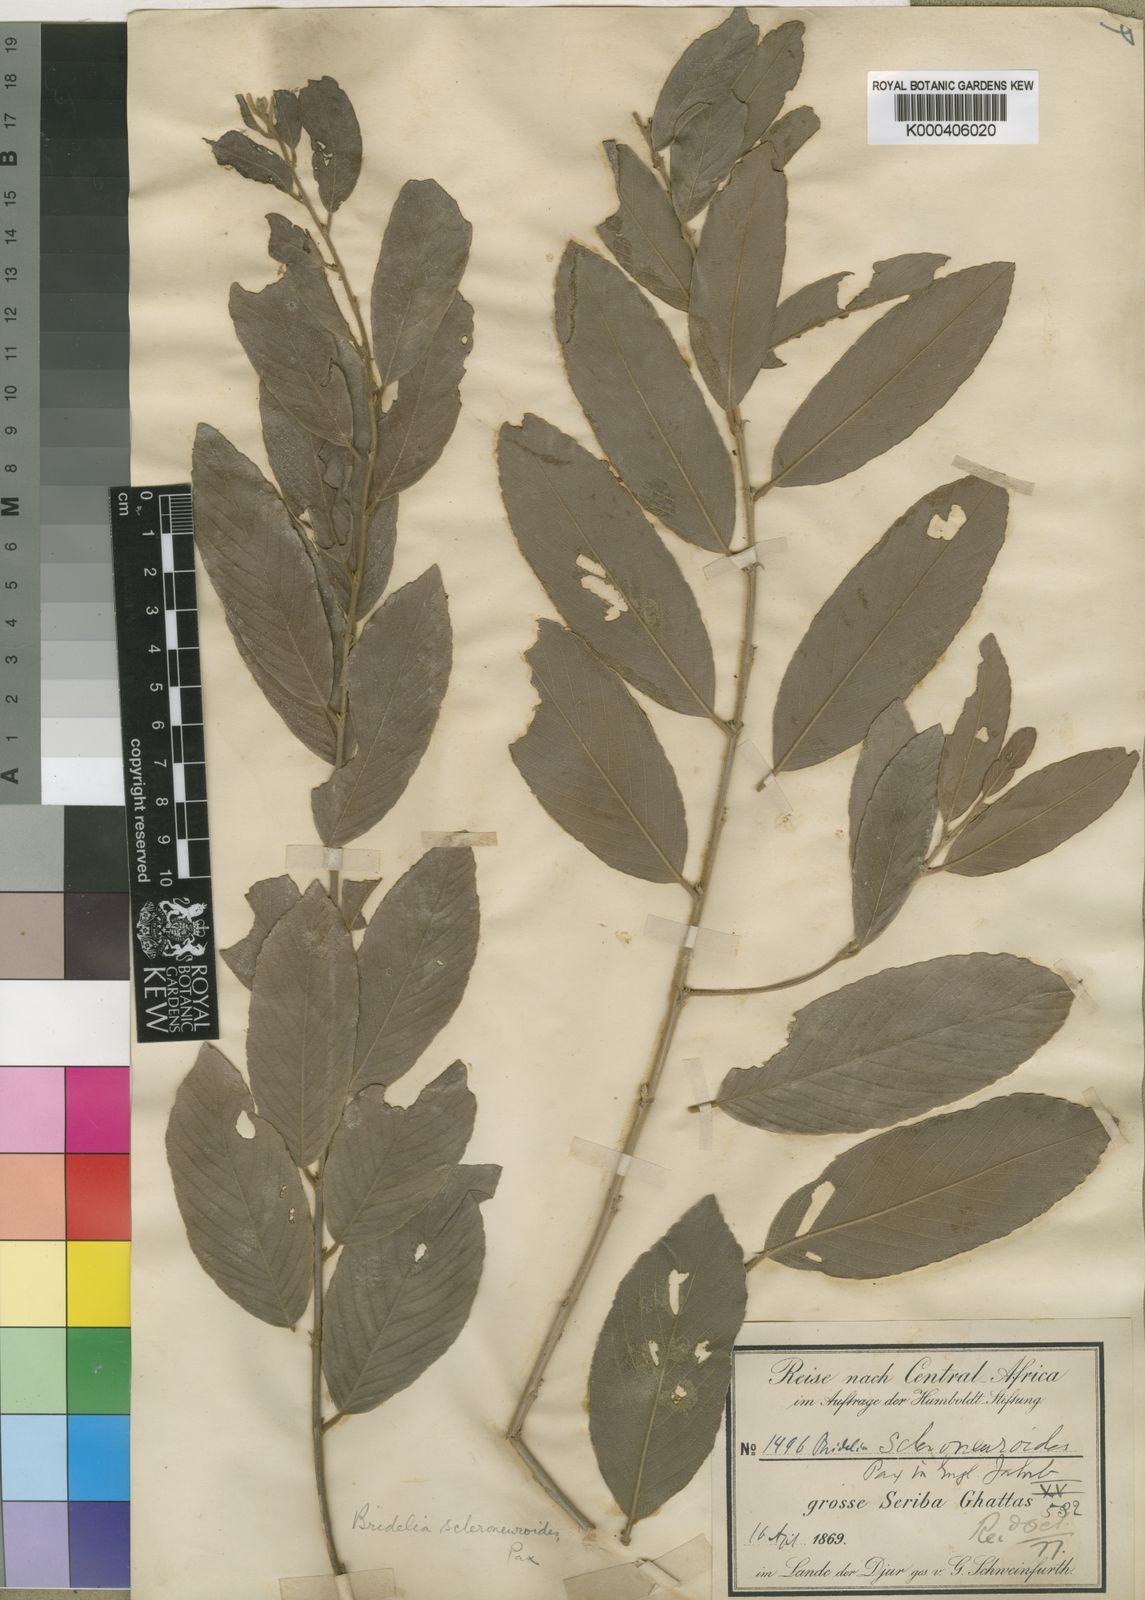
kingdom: Plantae
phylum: Tracheophyta
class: Magnoliopsida
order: Malpighiales
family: Phyllanthaceae
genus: Bridelia
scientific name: Bridelia
